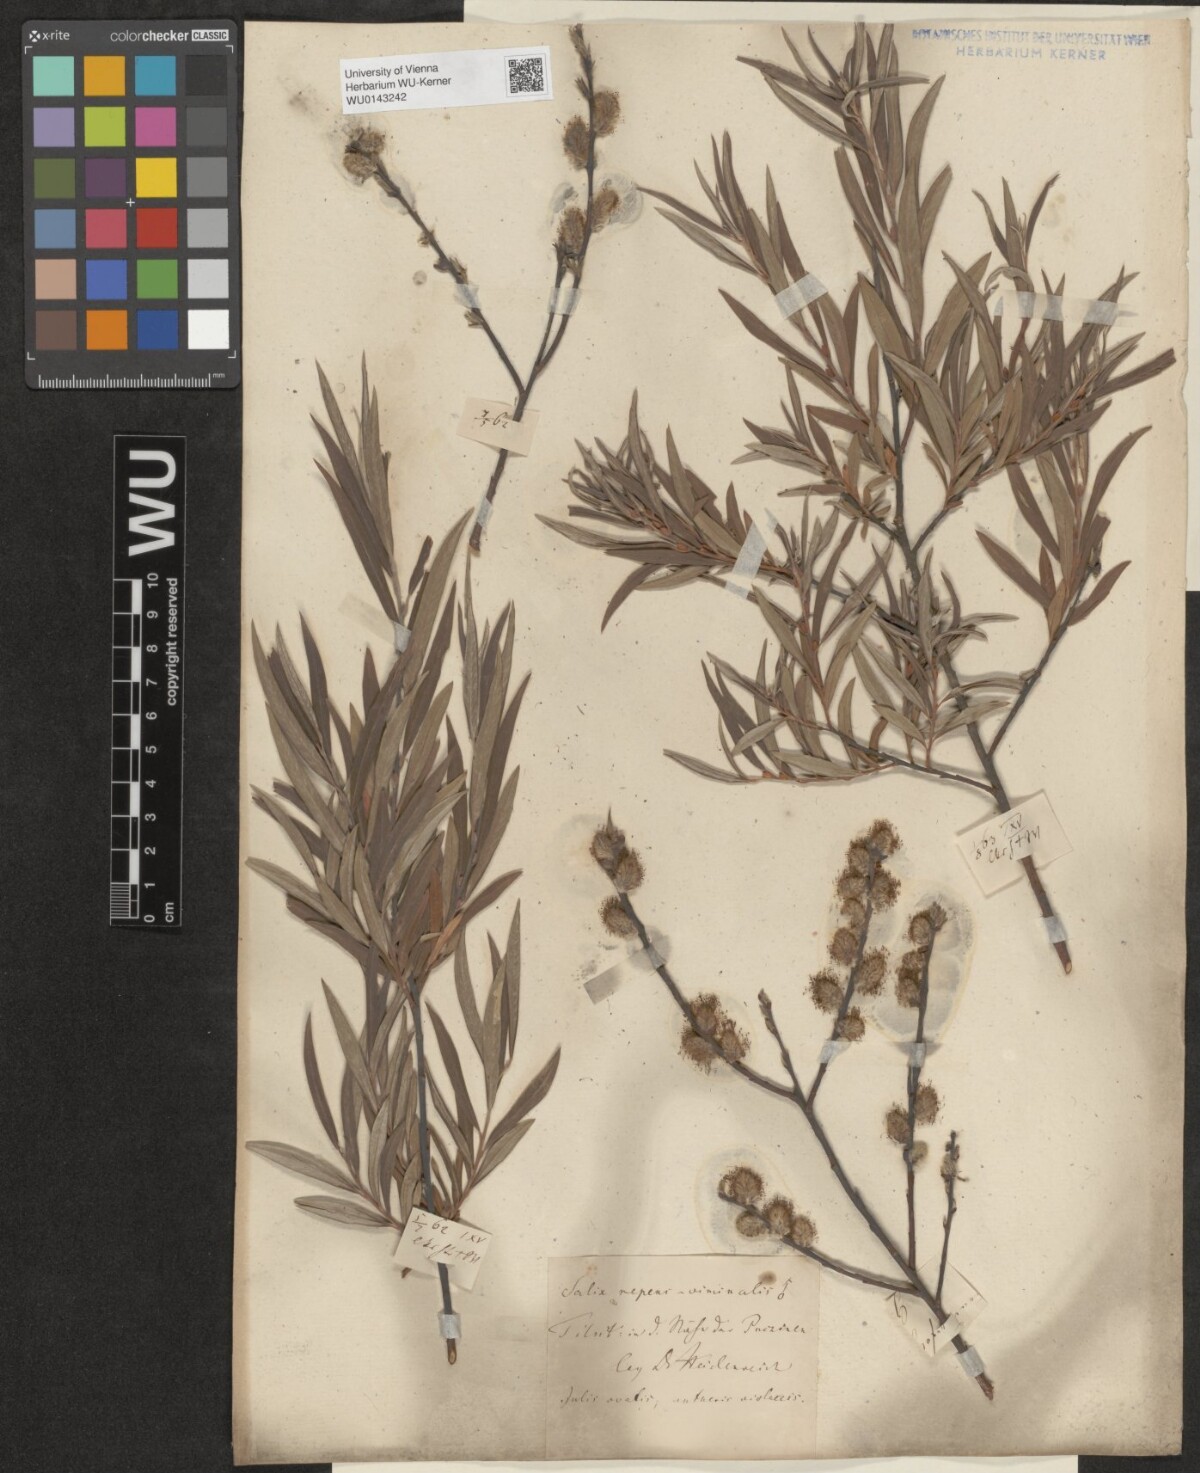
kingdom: Plantae
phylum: Tracheophyta
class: Magnoliopsida
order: Malpighiales
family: Salicaceae
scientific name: Salicaceae
